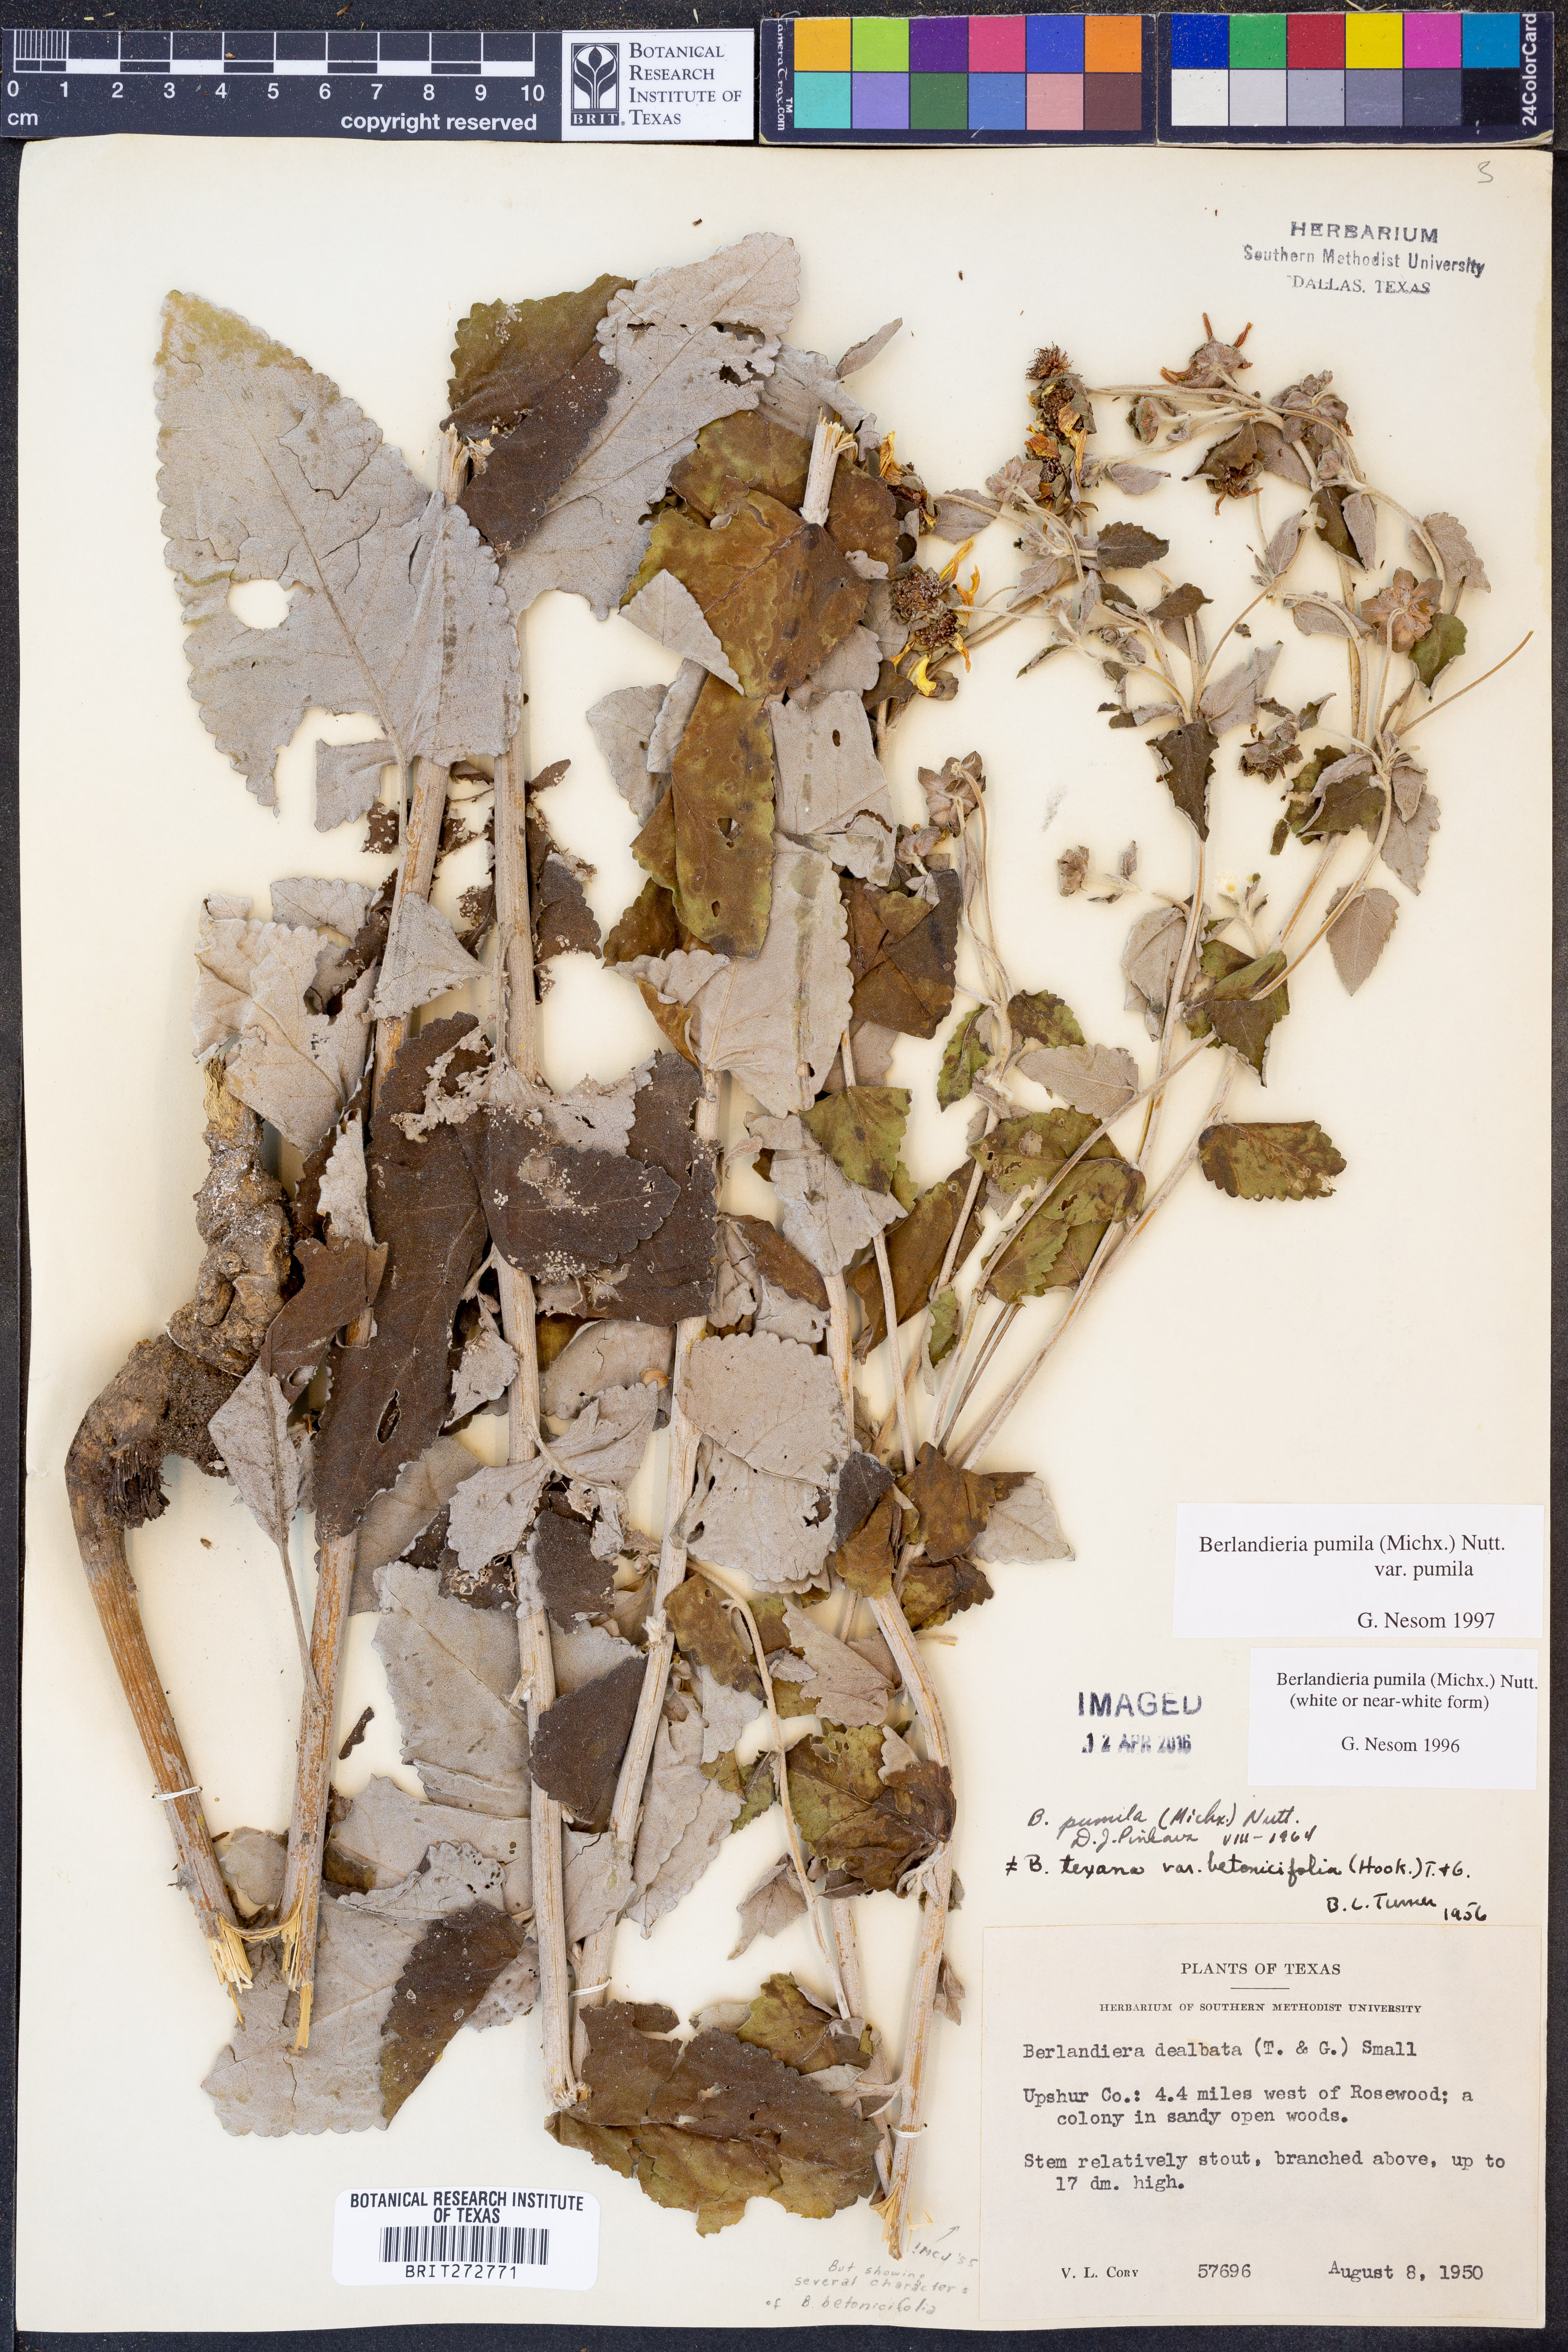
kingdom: Plantae
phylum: Tracheophyta
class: Magnoliopsida
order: Asterales
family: Asteraceae
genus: Berlandiera
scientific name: Berlandiera pumila
